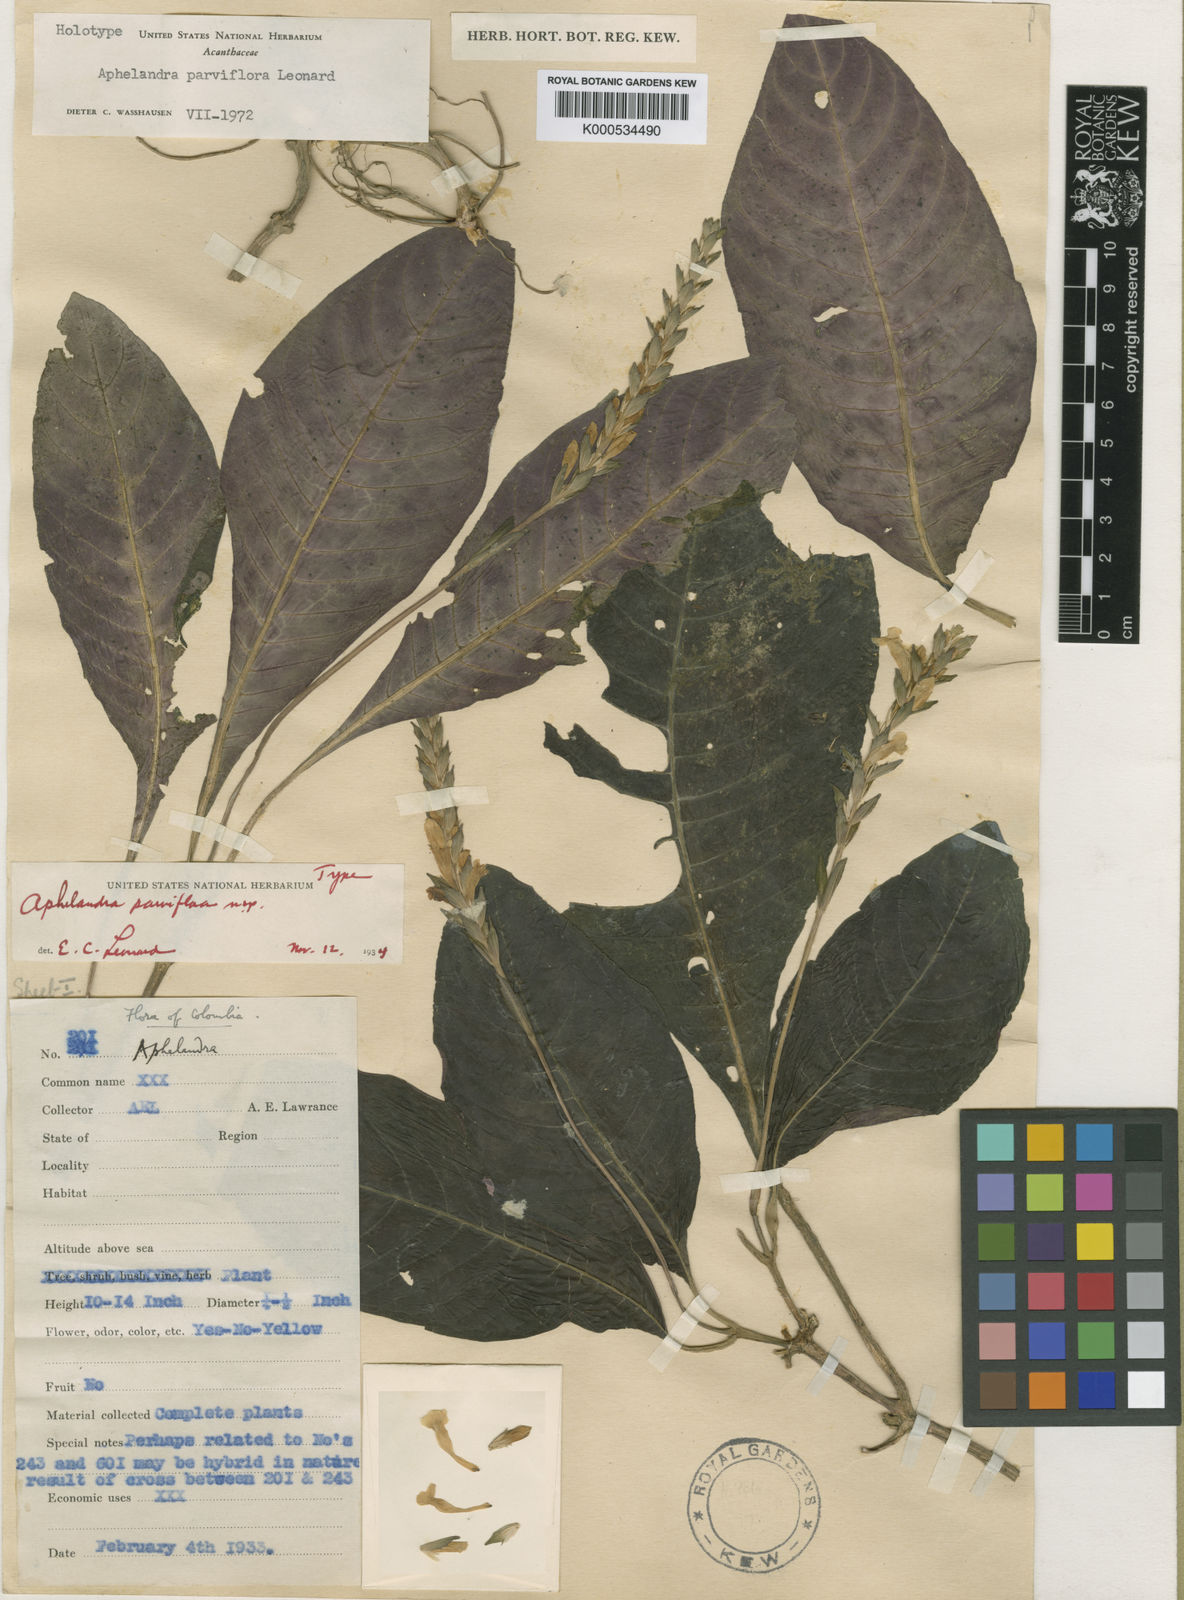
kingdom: Plantae
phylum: Tracheophyta
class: Magnoliopsida
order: Lamiales
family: Acanthaceae
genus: Aphelandra
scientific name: Aphelandra parviflora
